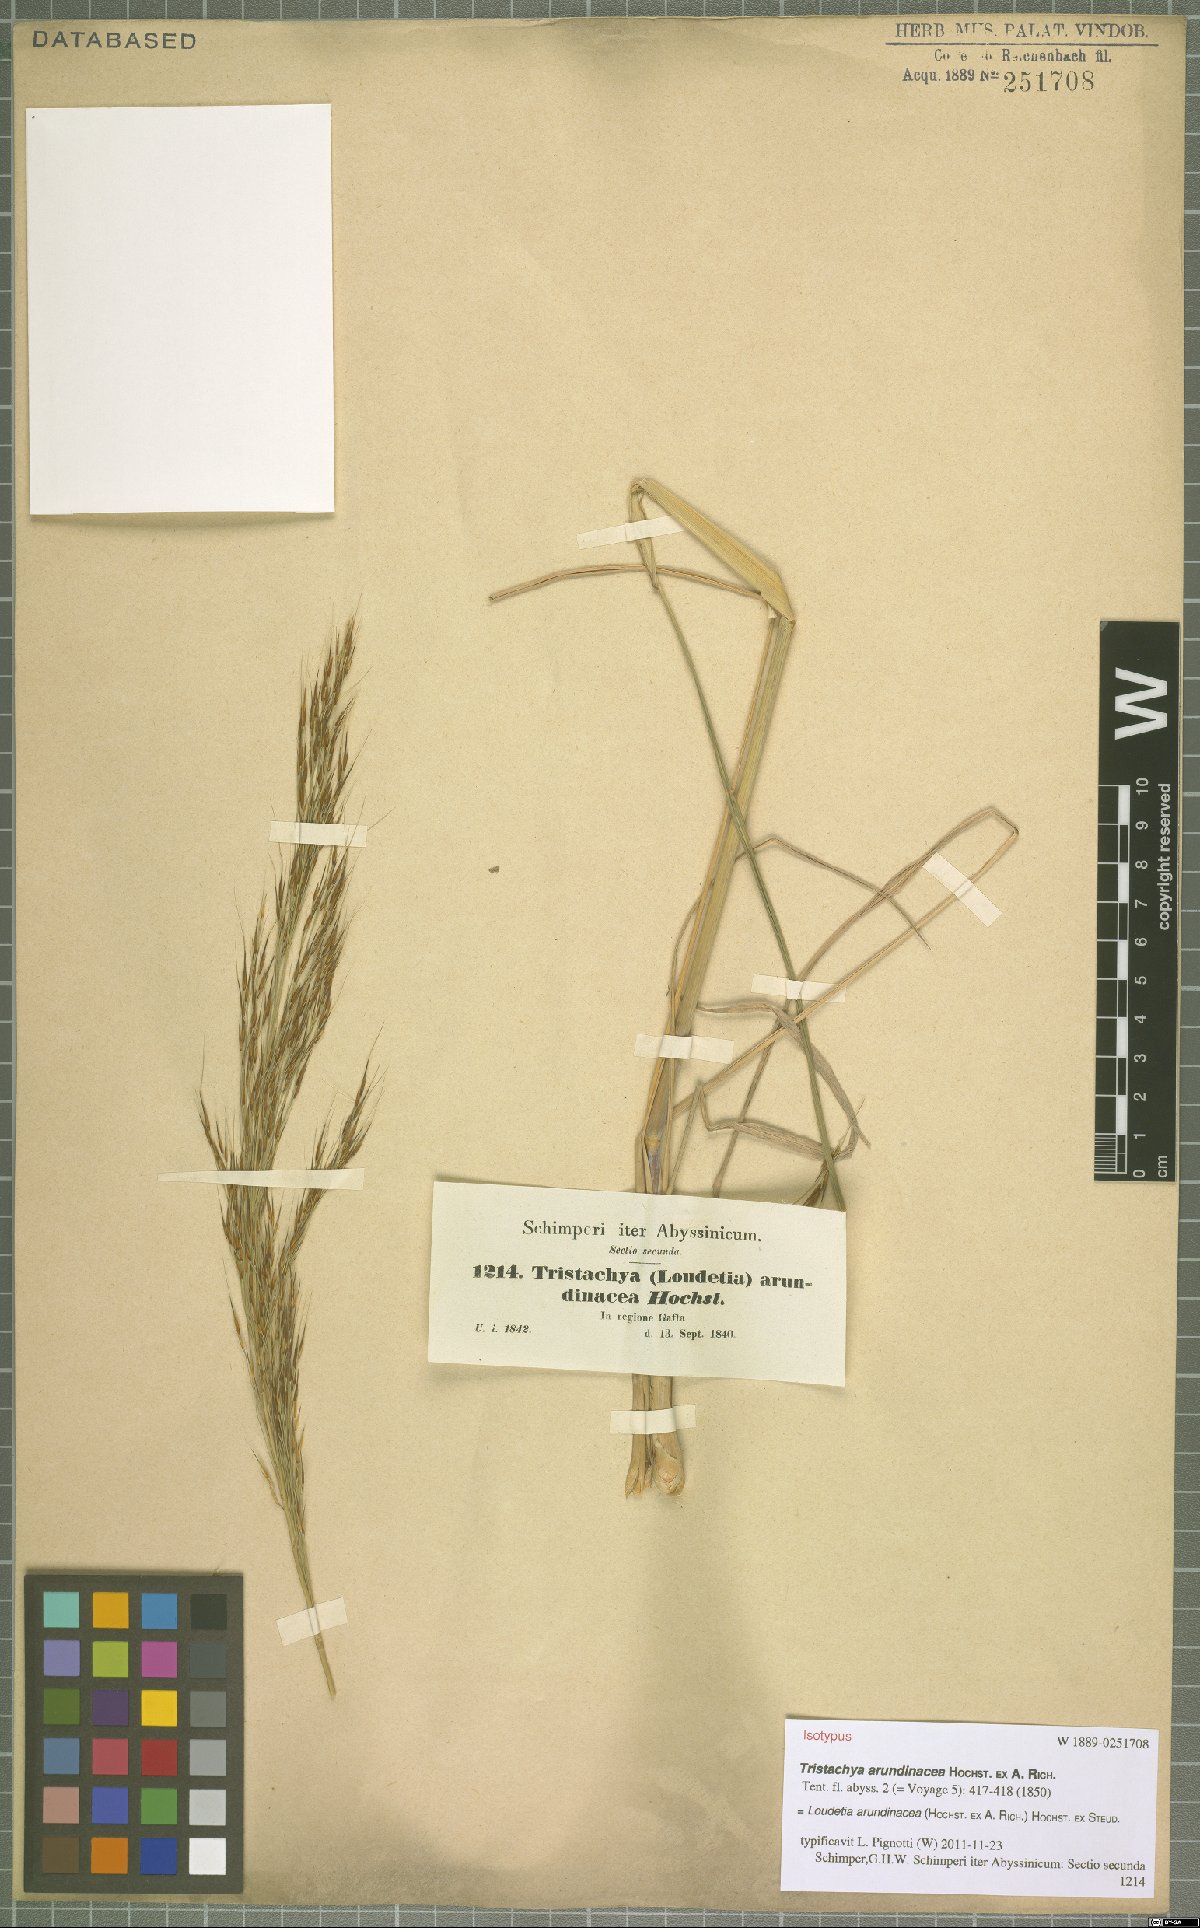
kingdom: Plantae
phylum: Tracheophyta
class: Liliopsida
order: Poales
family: Poaceae
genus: Loudetia
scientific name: Loudetia arundinacea
